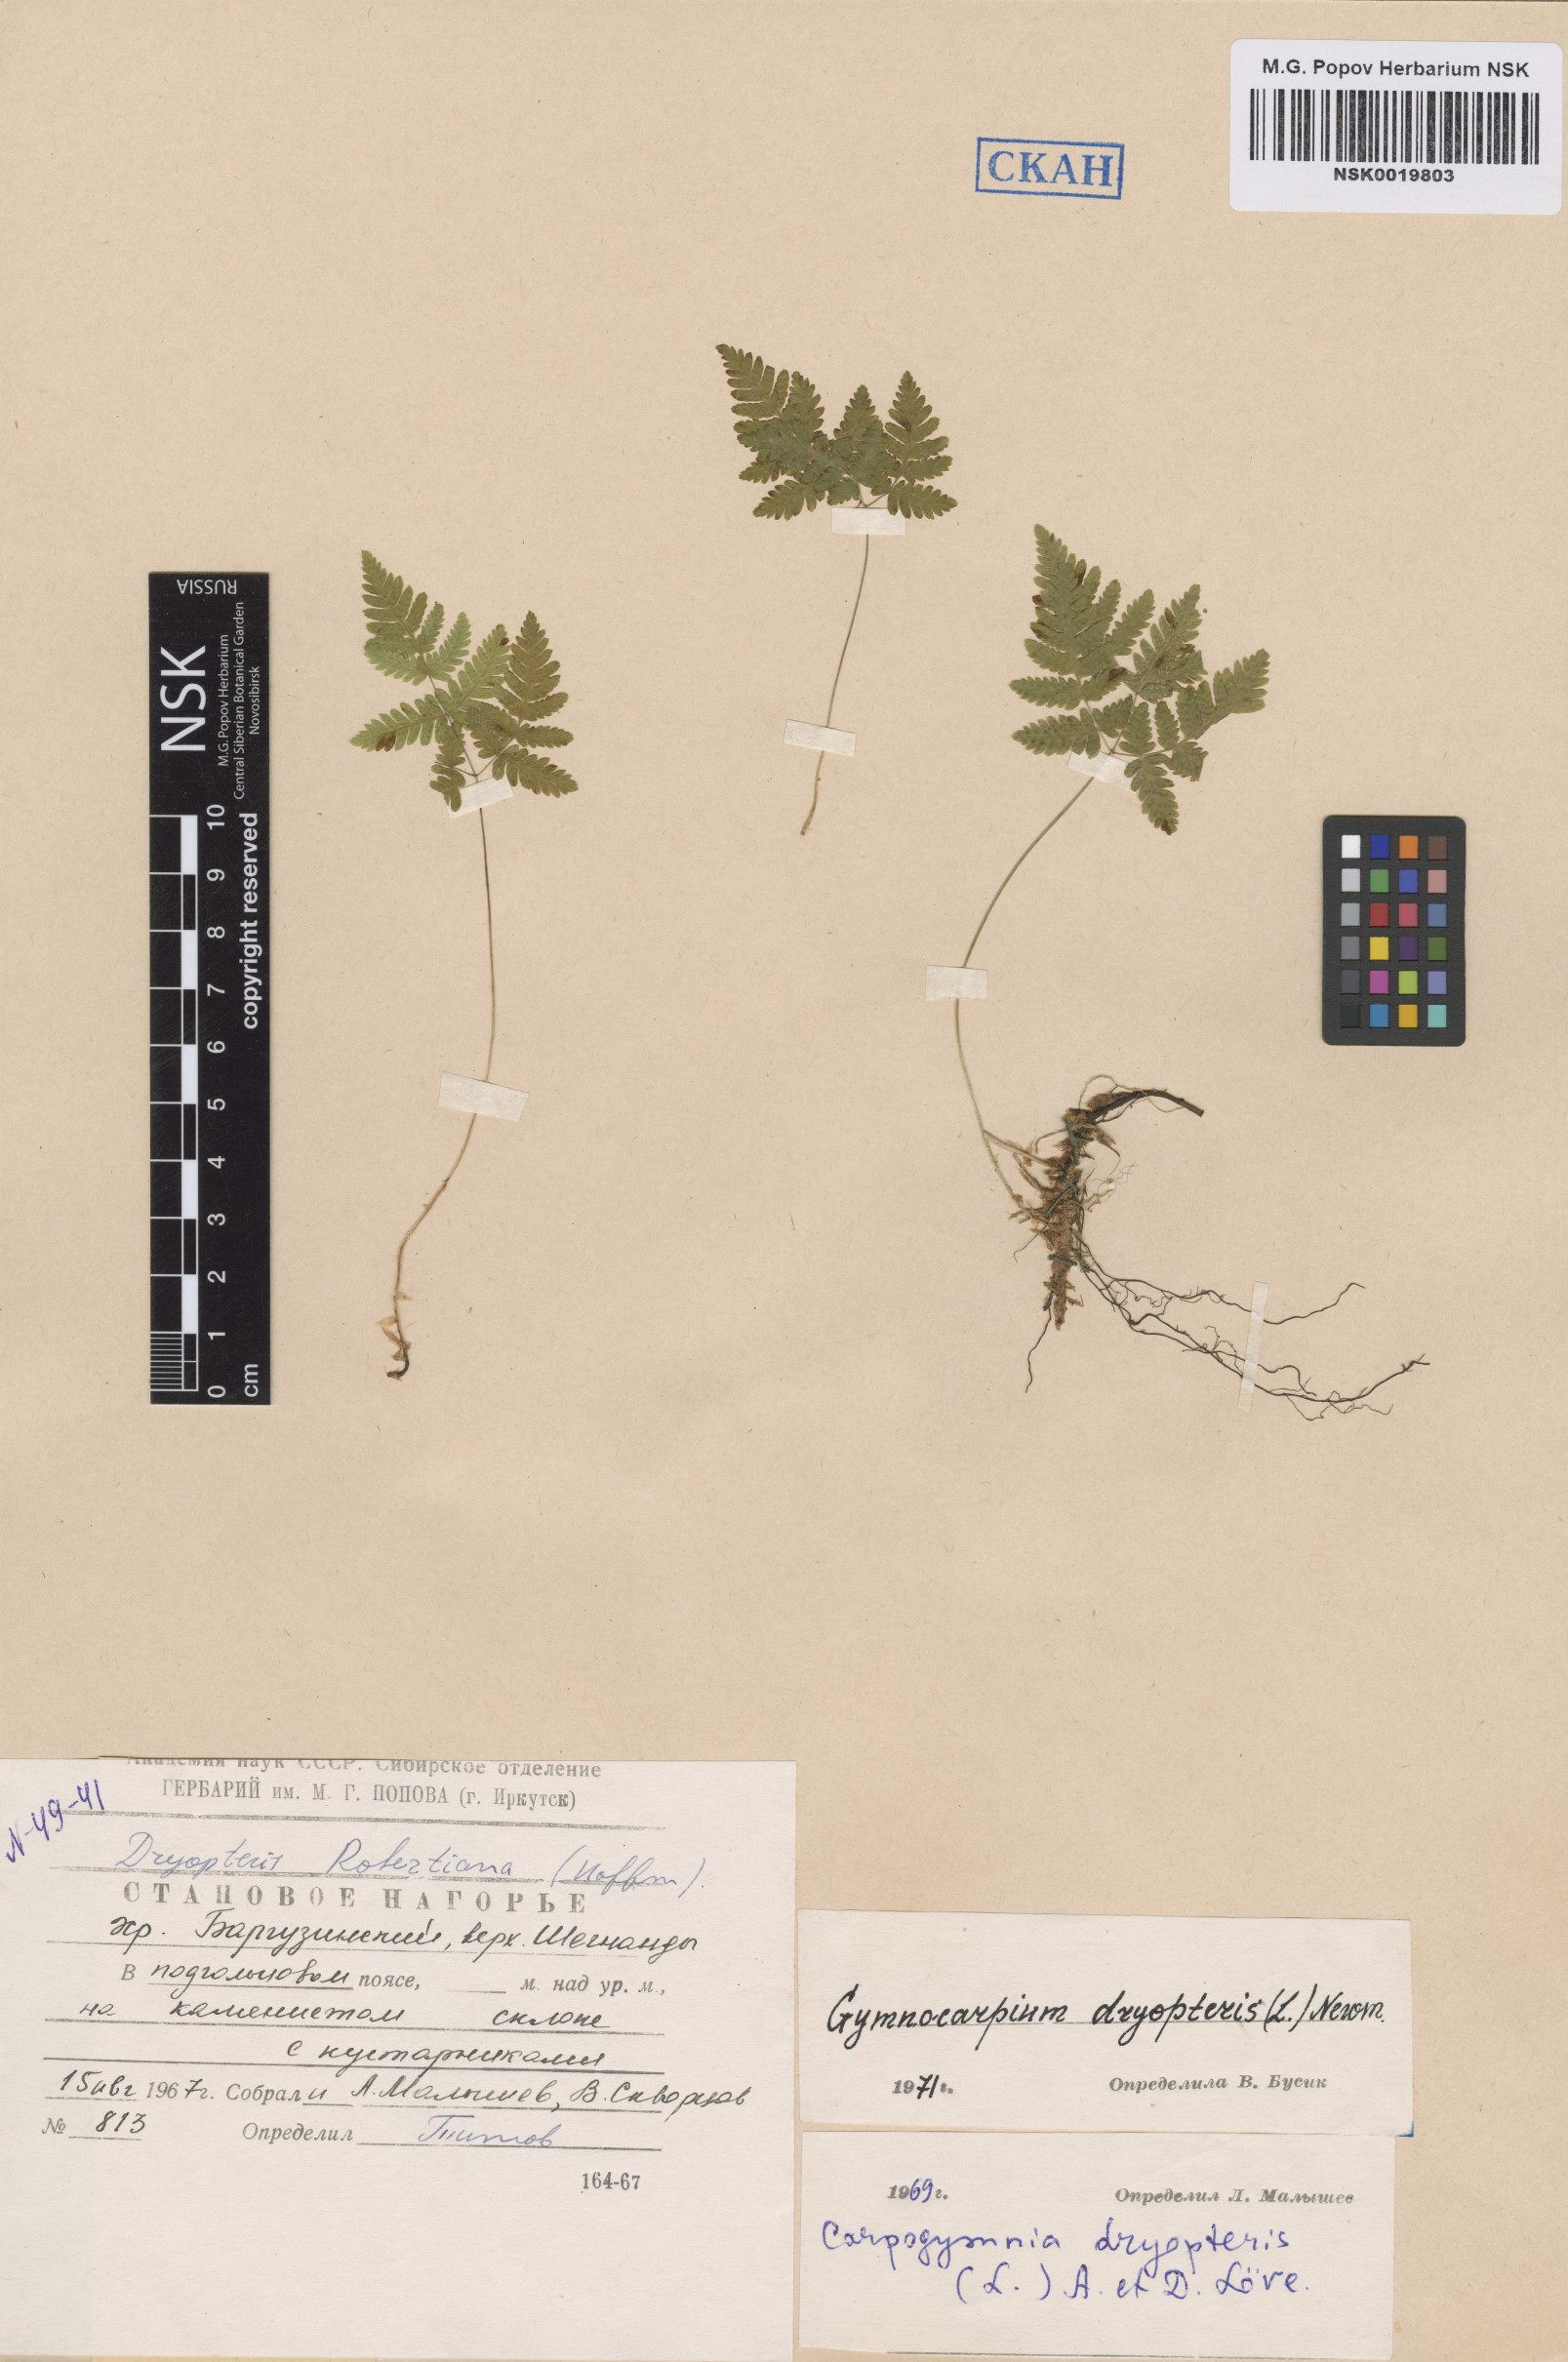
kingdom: Plantae
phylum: Tracheophyta
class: Polypodiopsida
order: Polypodiales
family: Cystopteridaceae
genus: Gymnocarpium
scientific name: Gymnocarpium dryopteris
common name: Oak fern
